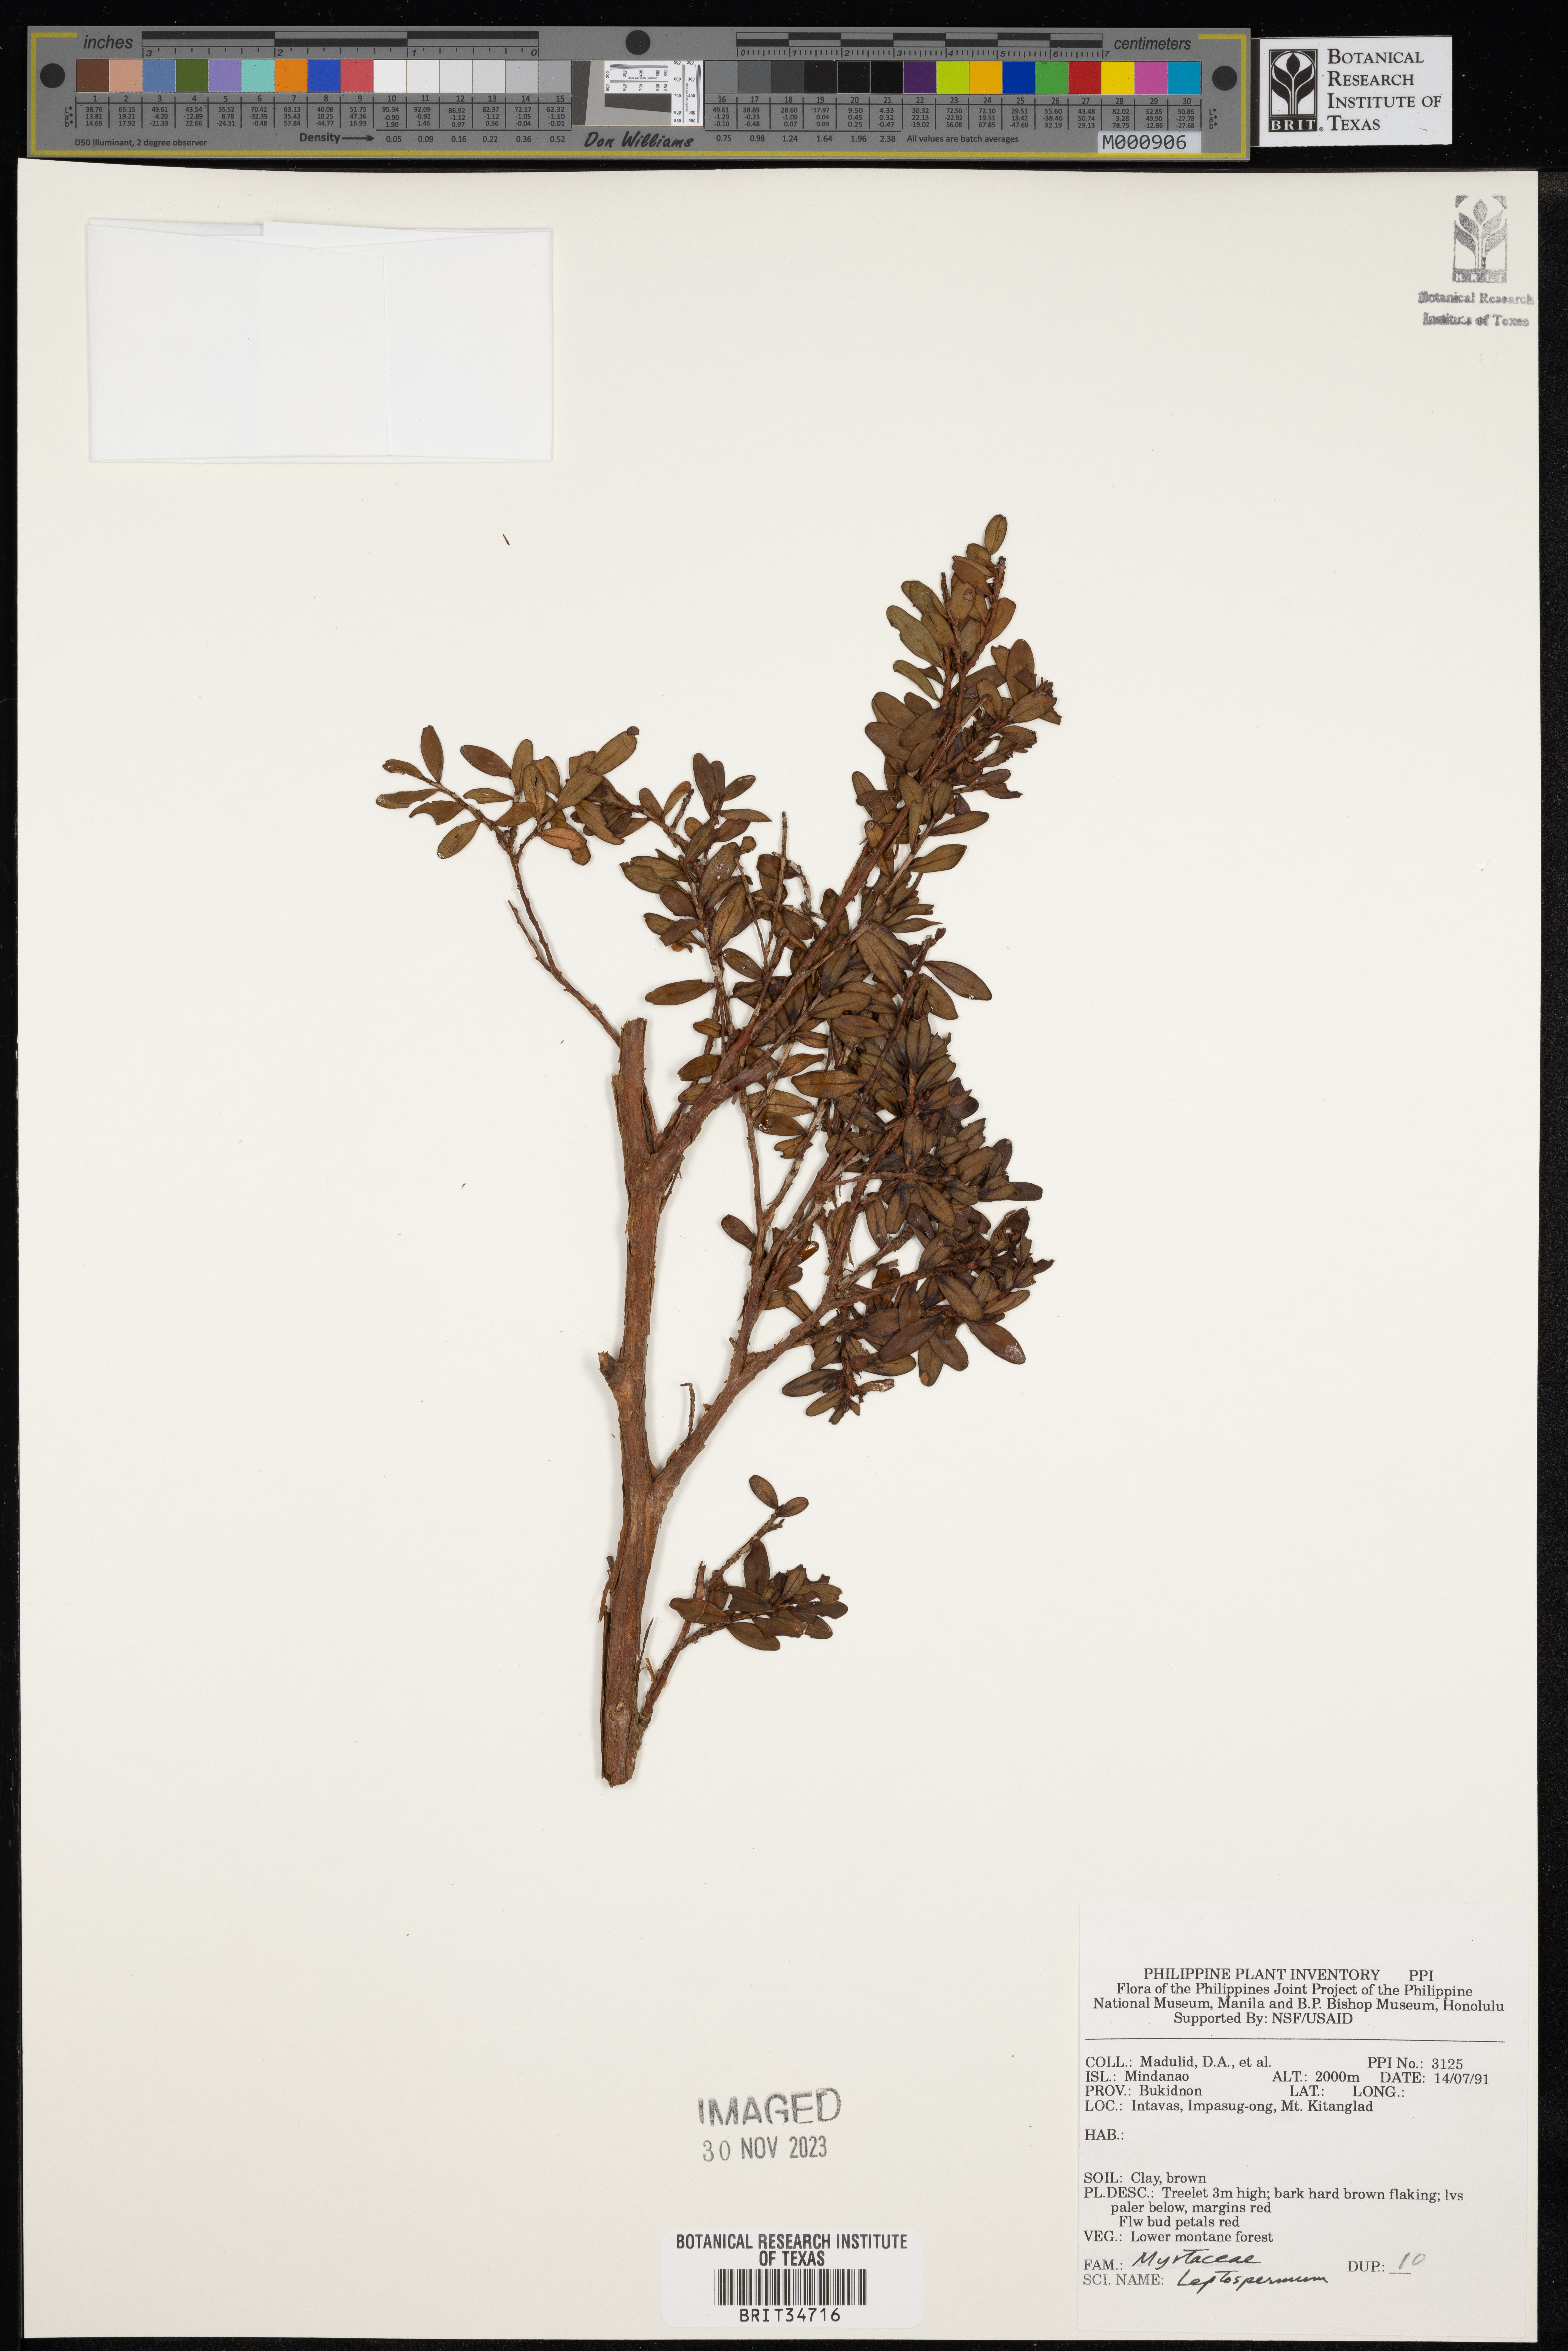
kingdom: Plantae
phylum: Tracheophyta
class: Magnoliopsida
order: Myrtales
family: Myrtaceae
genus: Leptospermum
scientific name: Leptospermum
